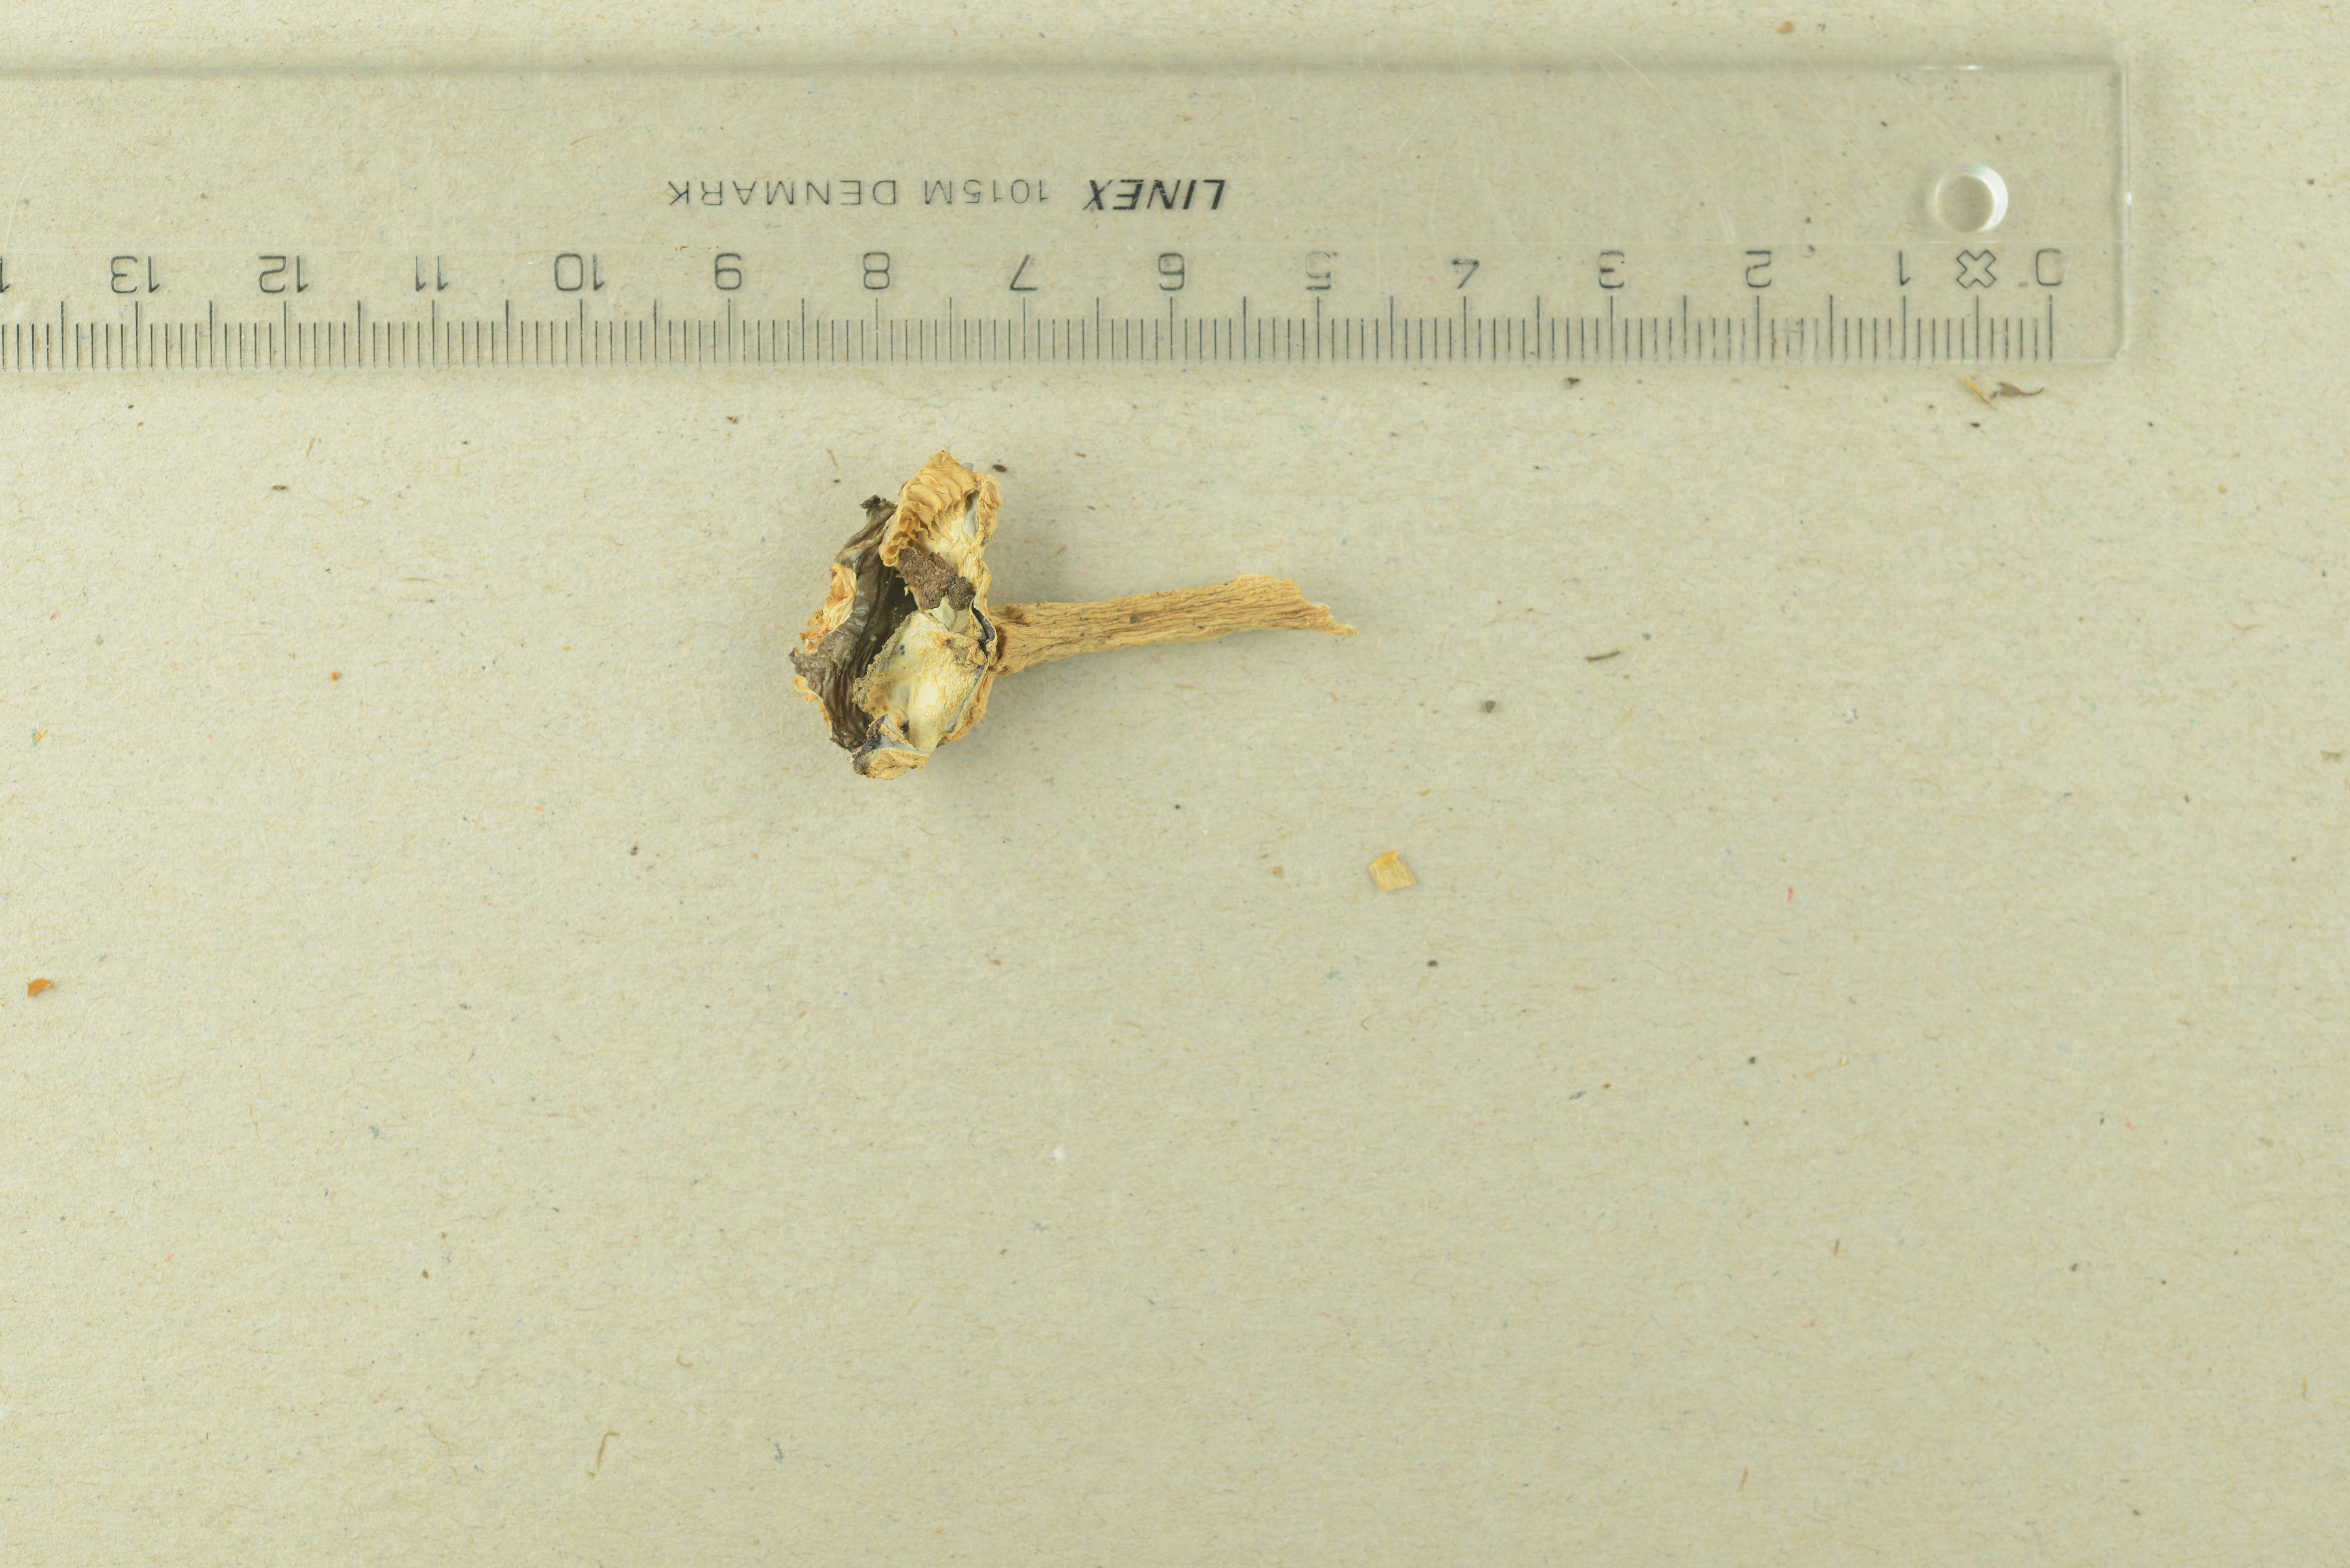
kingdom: Fungi
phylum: Basidiomycota
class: Agaricomycetes
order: Russulales
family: Russulaceae
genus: Russula
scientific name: Russula violacea
